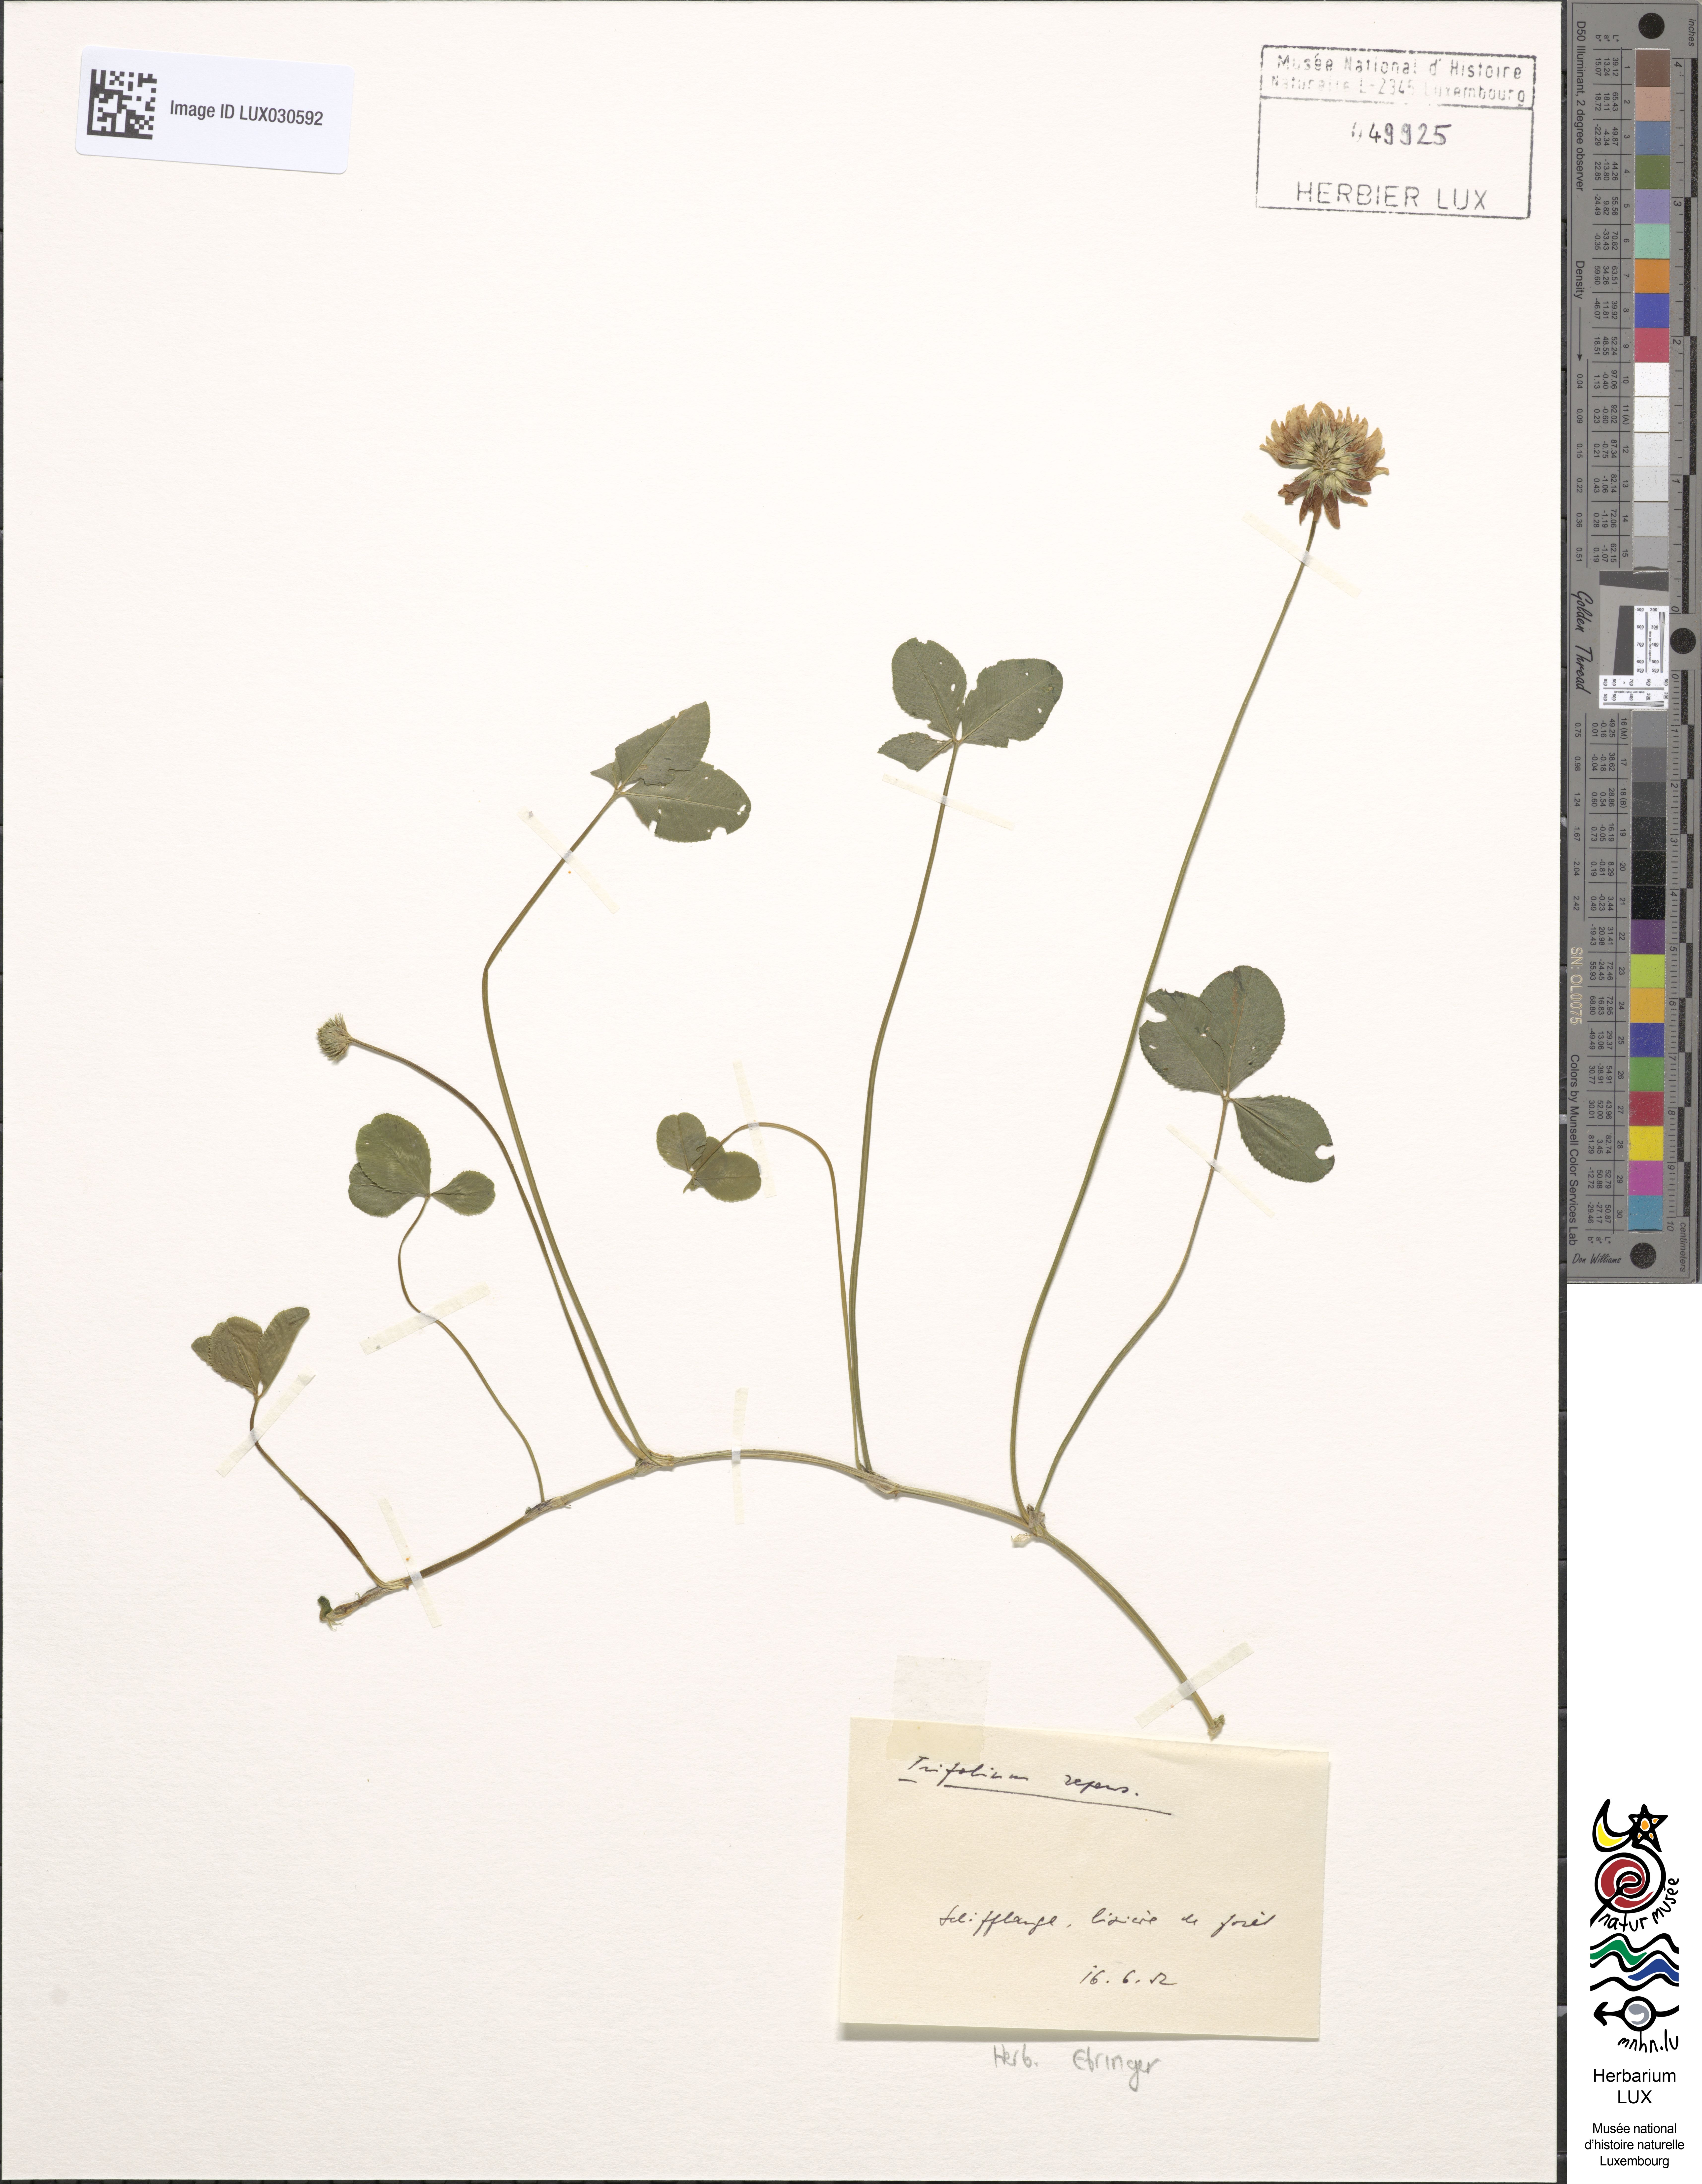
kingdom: Plantae
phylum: Tracheophyta
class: Magnoliopsida
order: Fabales
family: Fabaceae
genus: Trifolium
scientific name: Trifolium repens
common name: White clover
